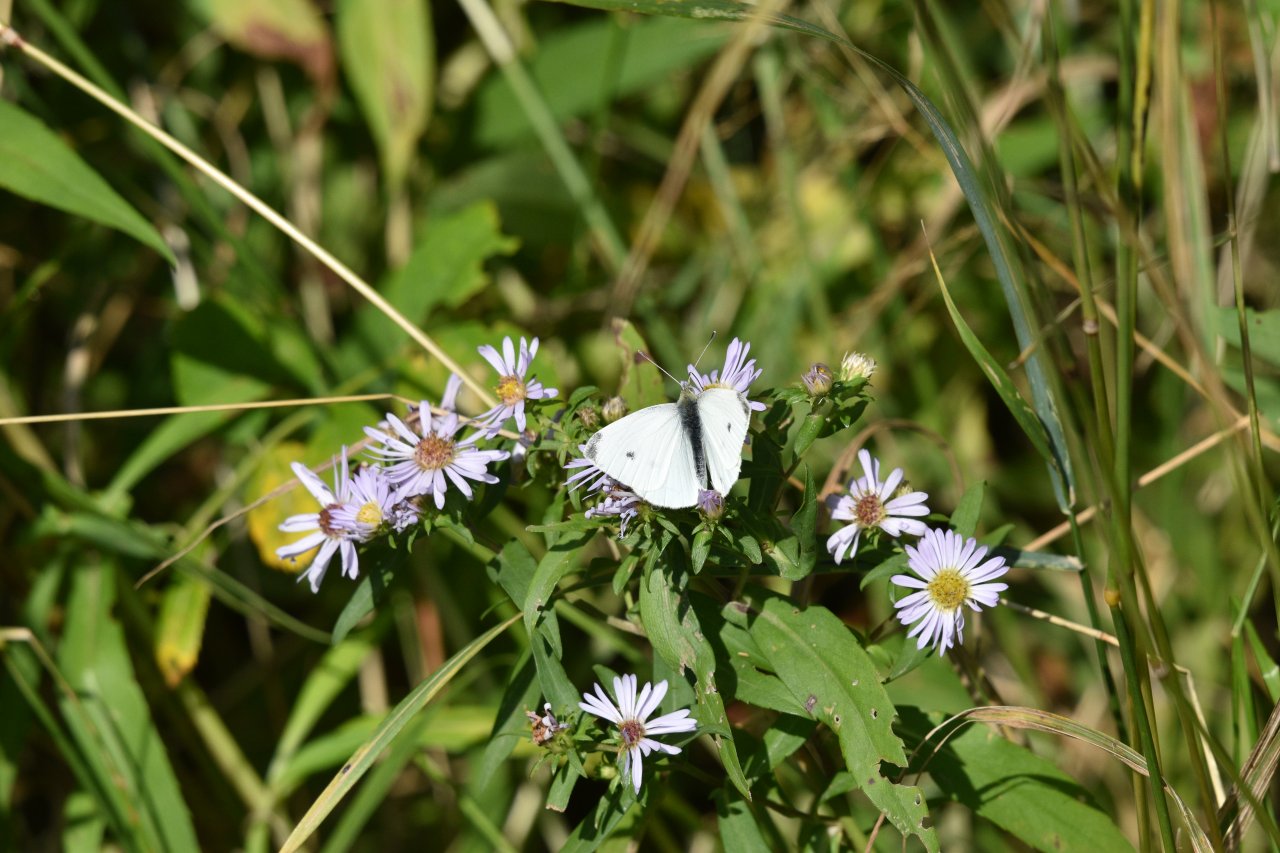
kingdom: Animalia
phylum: Arthropoda
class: Insecta
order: Lepidoptera
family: Pieridae
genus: Pieris
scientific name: Pieris rapae
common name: Cabbage White
